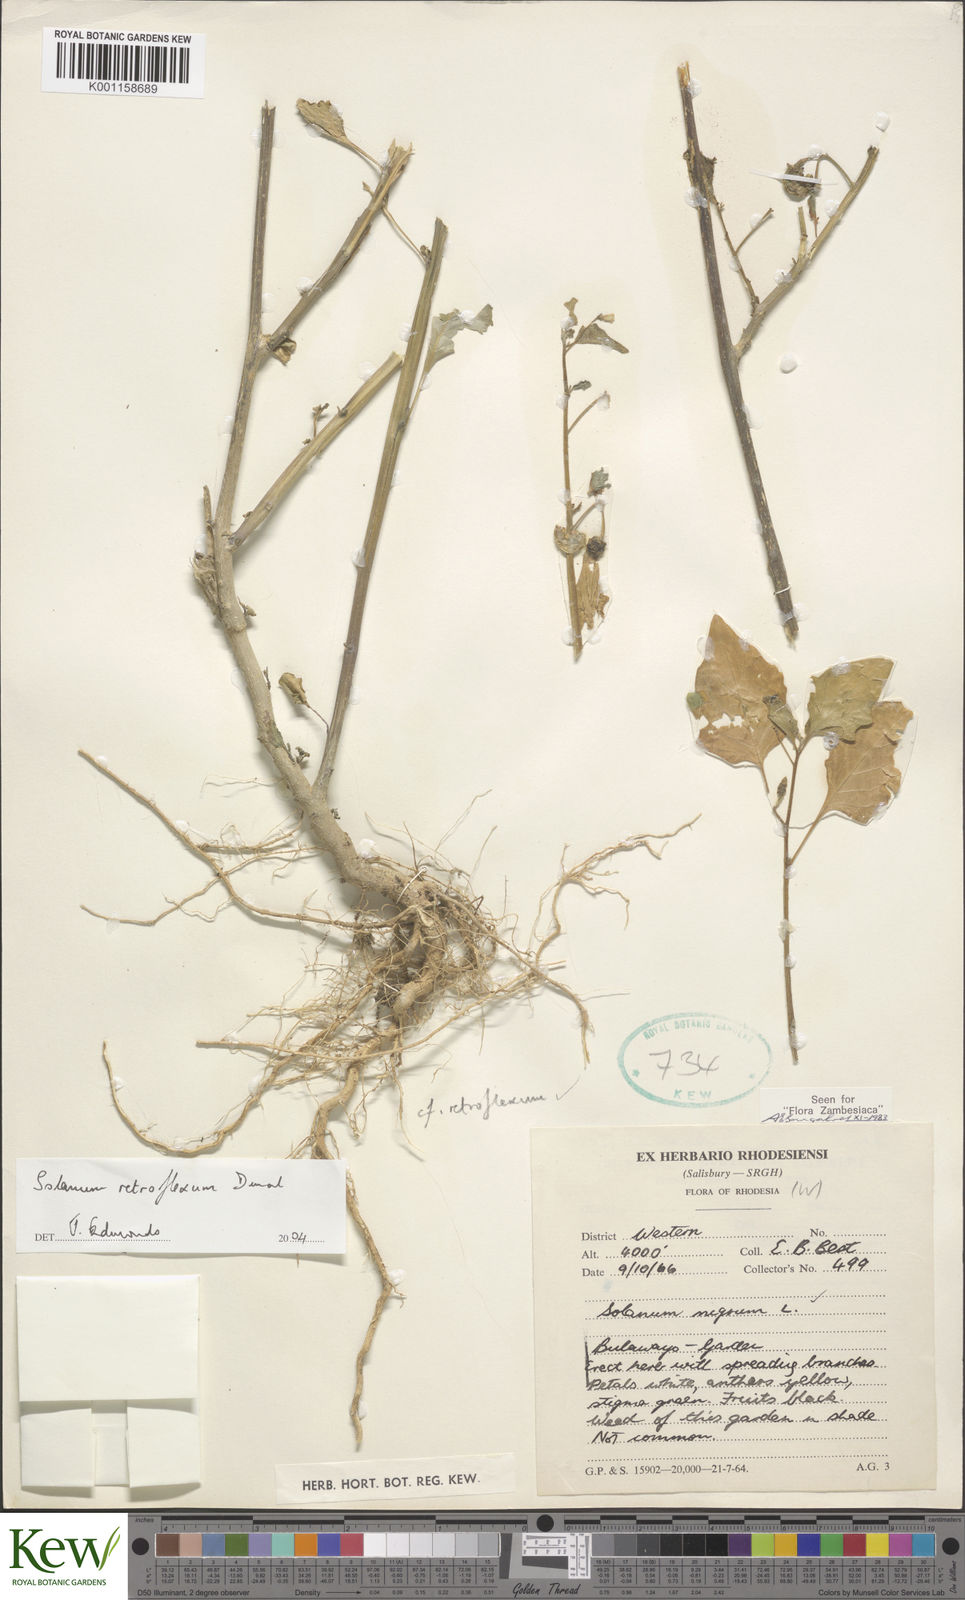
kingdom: Plantae
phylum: Tracheophyta
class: Magnoliopsida
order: Solanales
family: Solanaceae
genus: Solanum
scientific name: Solanum retroflexum
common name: Wonderberry
